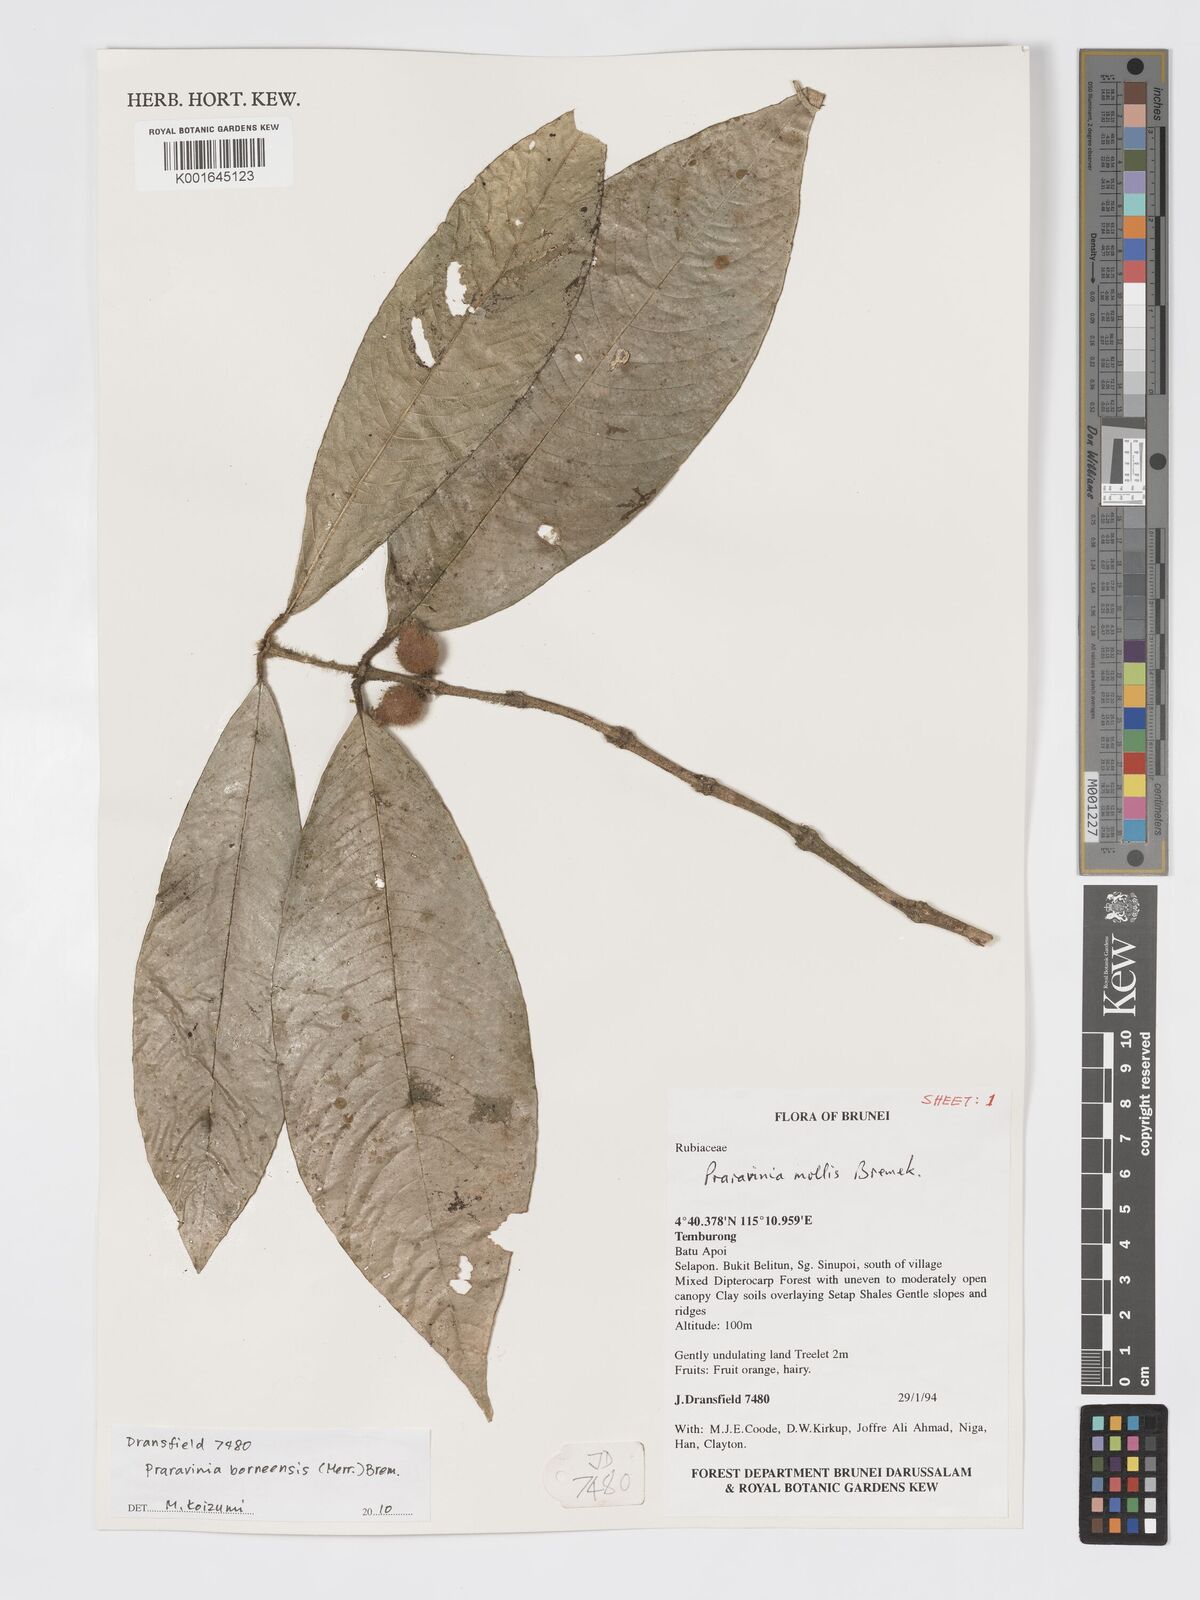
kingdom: Plantae
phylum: Tracheophyta
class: Magnoliopsida
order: Gentianales
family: Rubiaceae
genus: Praravinia
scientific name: Praravinia borneensis
